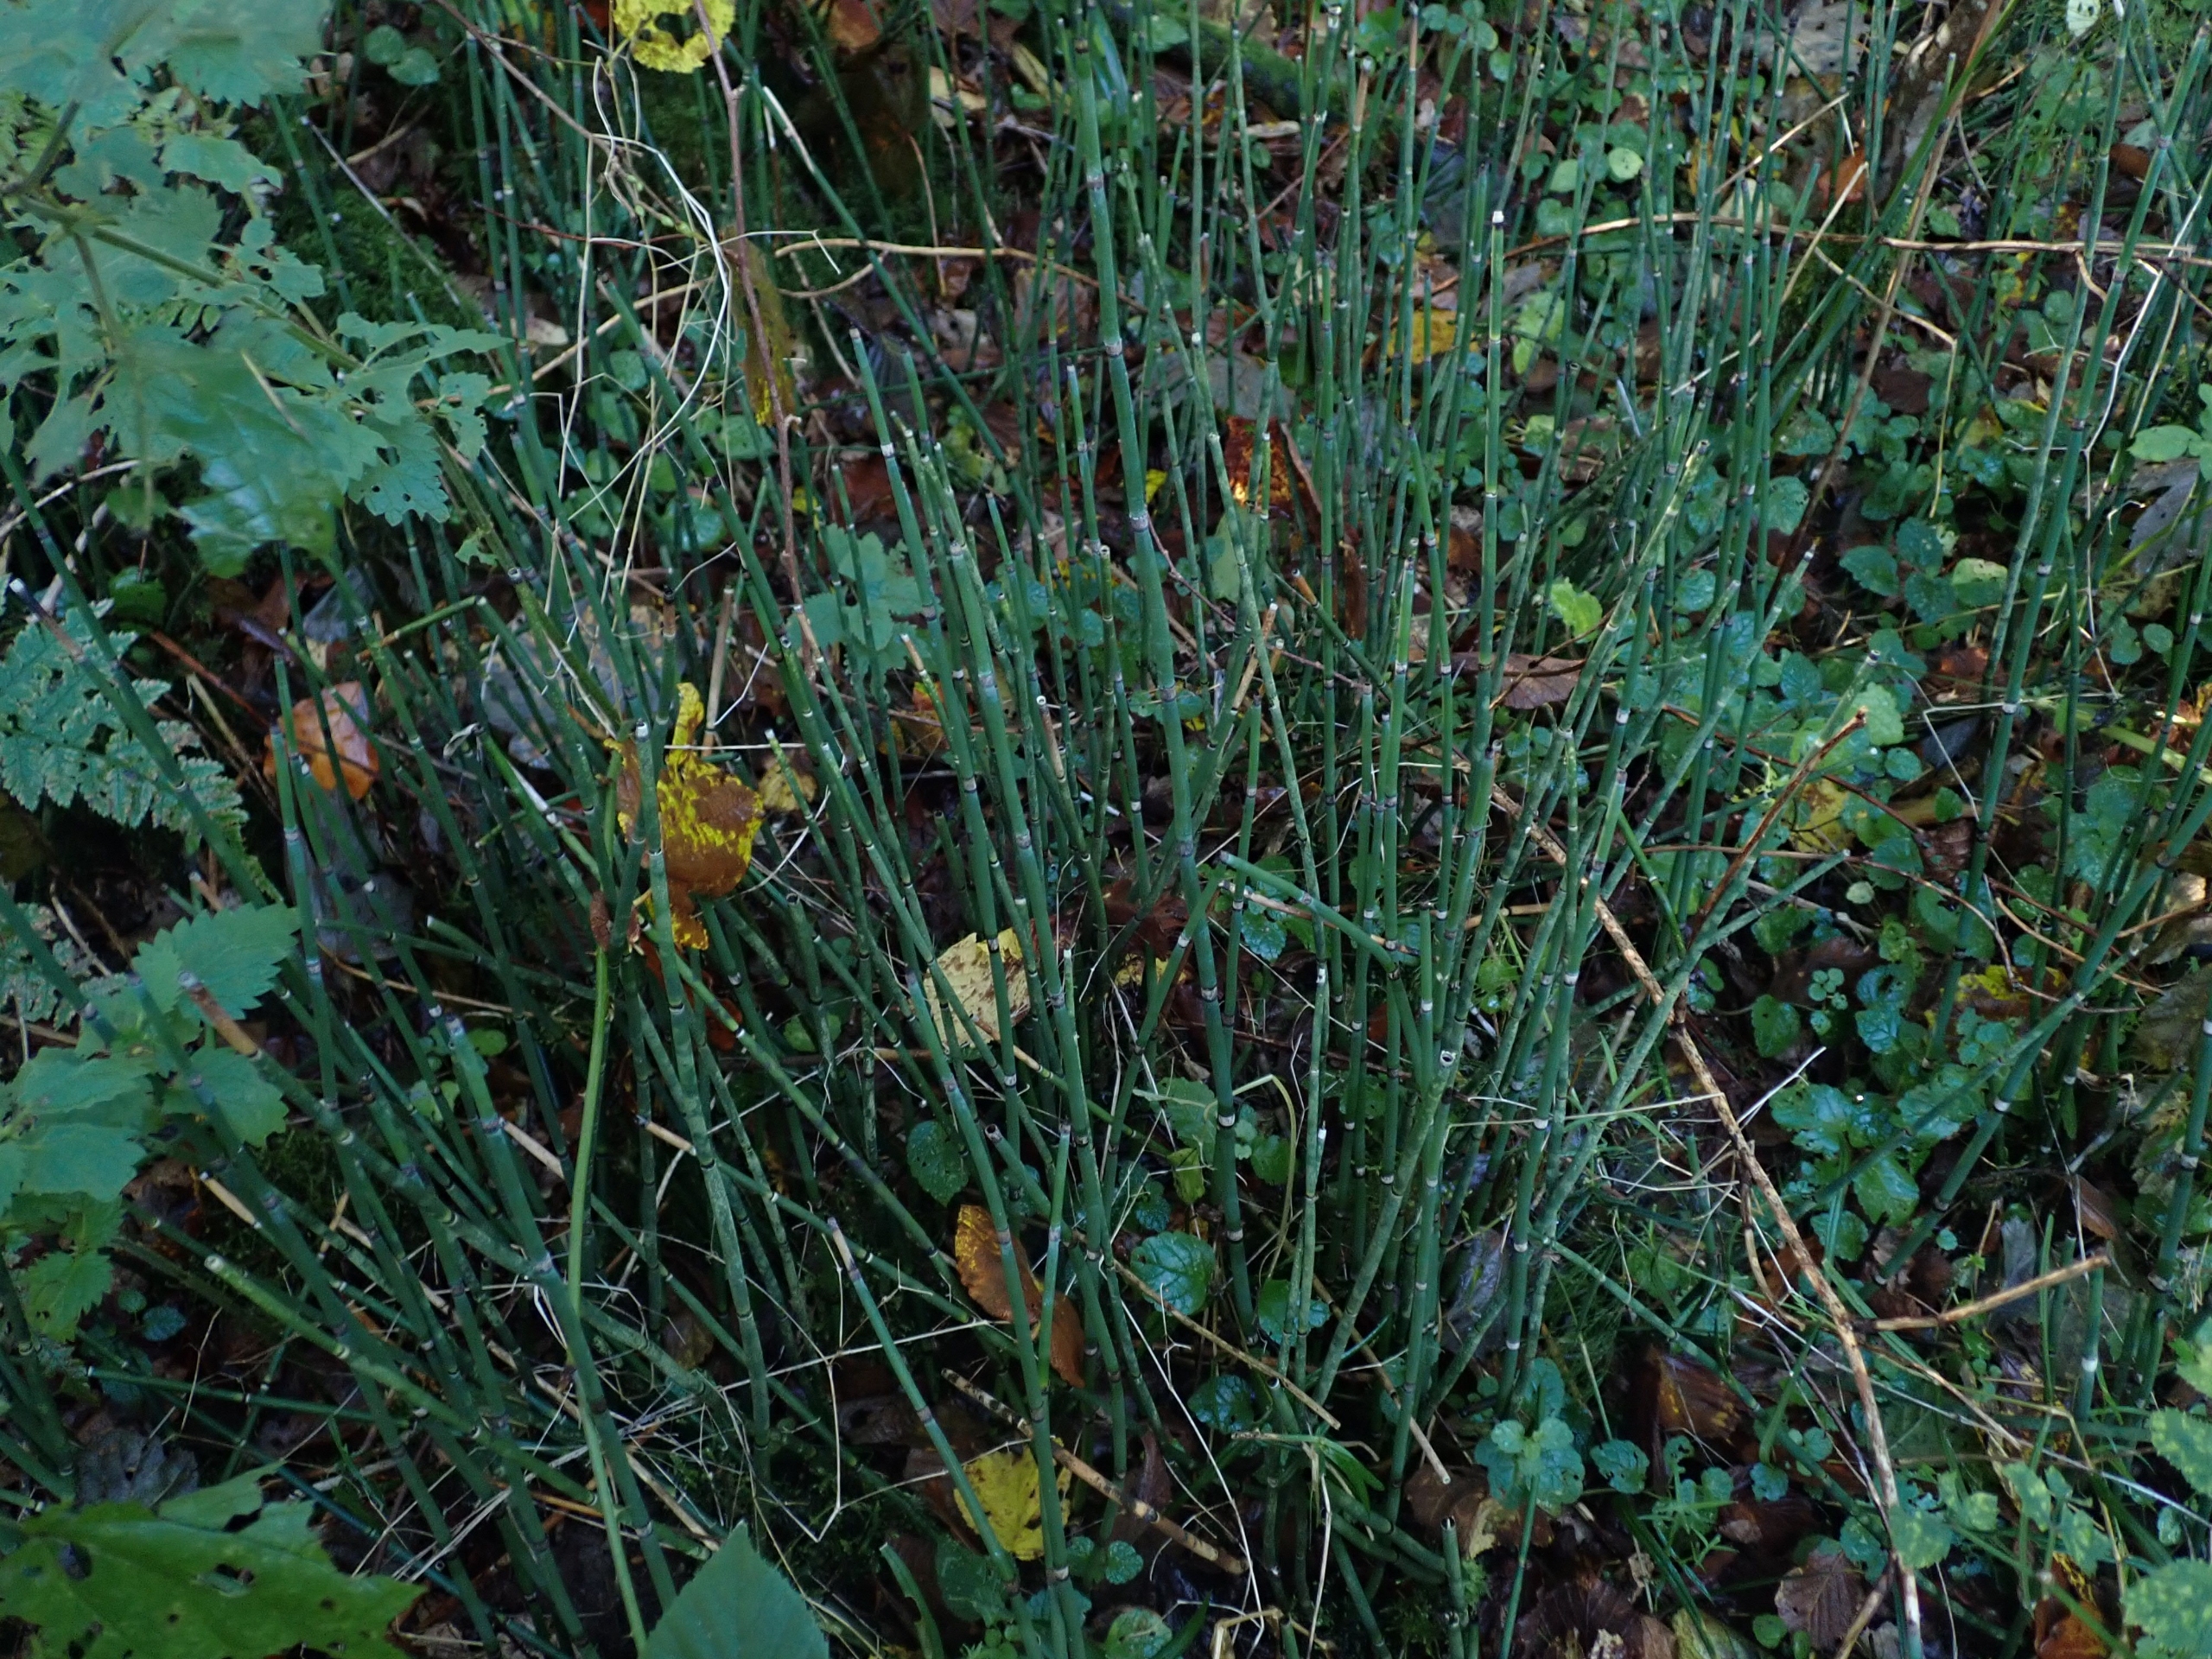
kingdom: Plantae
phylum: Tracheophyta
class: Polypodiopsida
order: Equisetales
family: Equisetaceae
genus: Equisetum
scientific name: Equisetum hyemale
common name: Skavgræs
